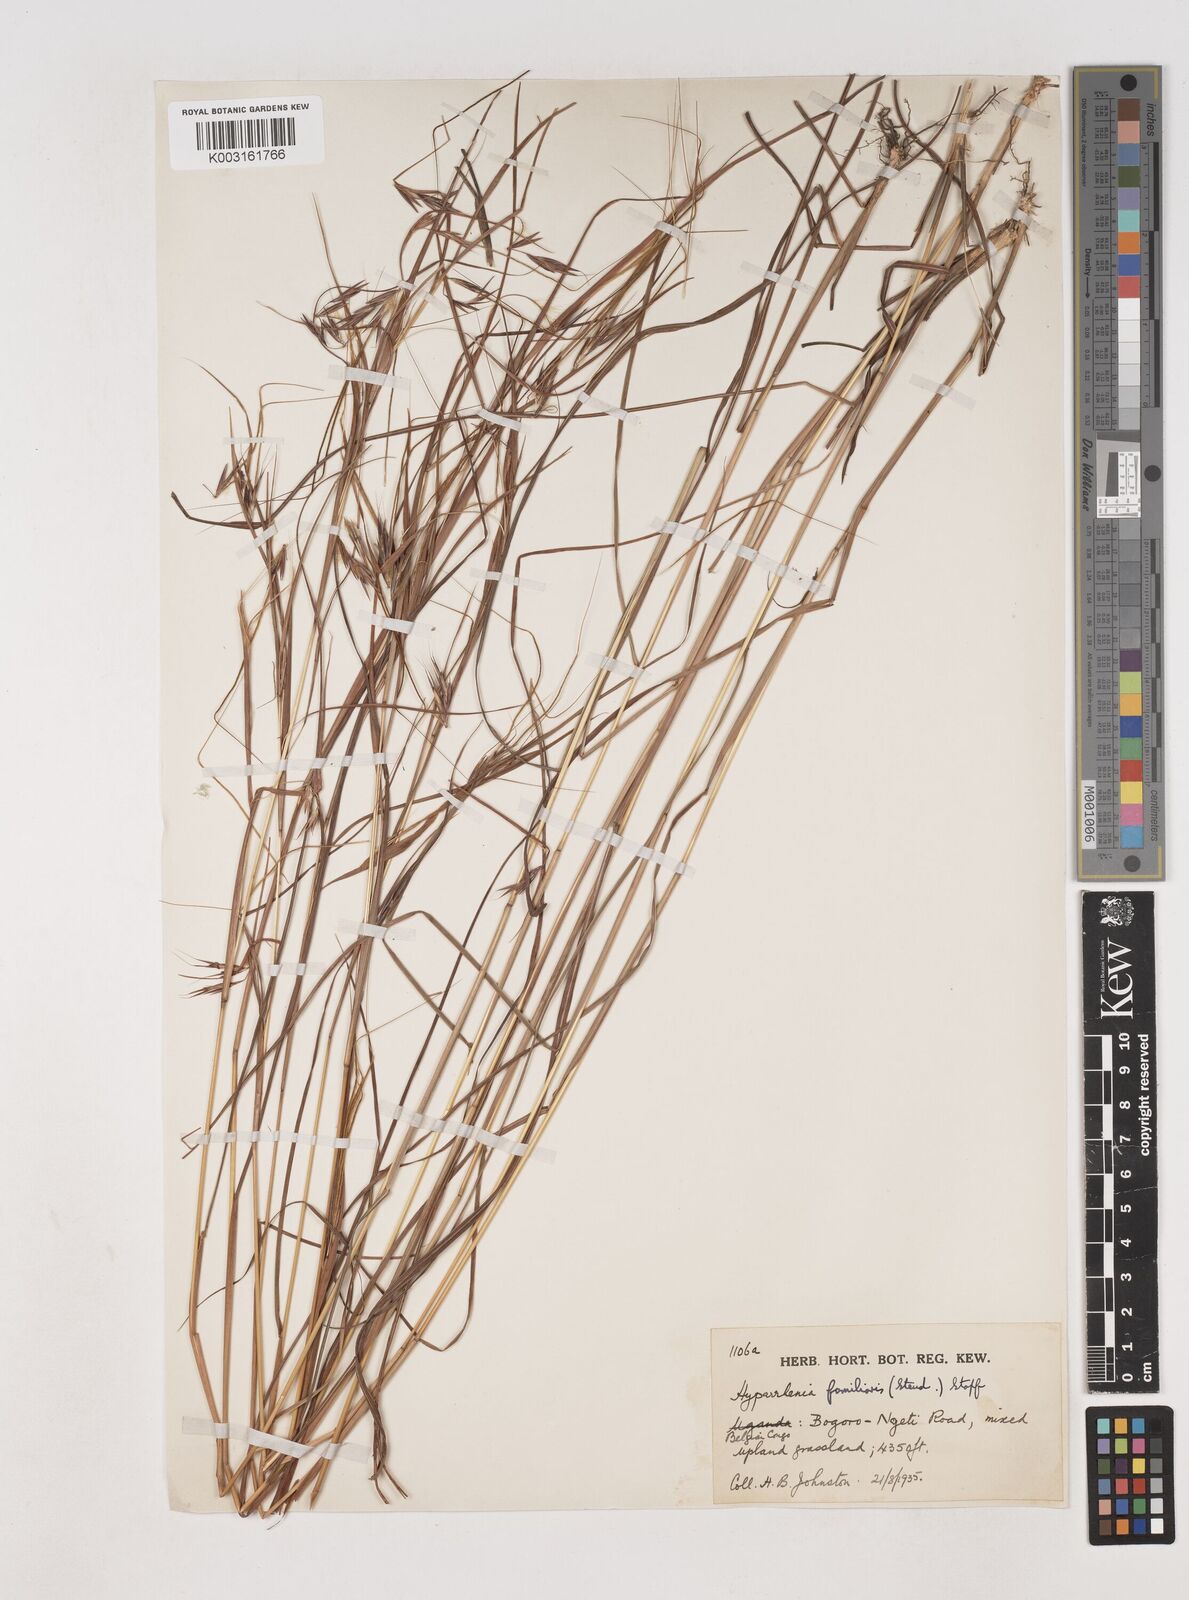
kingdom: Plantae
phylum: Tracheophyta
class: Liliopsida
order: Poales
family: Poaceae
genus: Hyparrhenia
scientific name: Hyparrhenia familiaris
